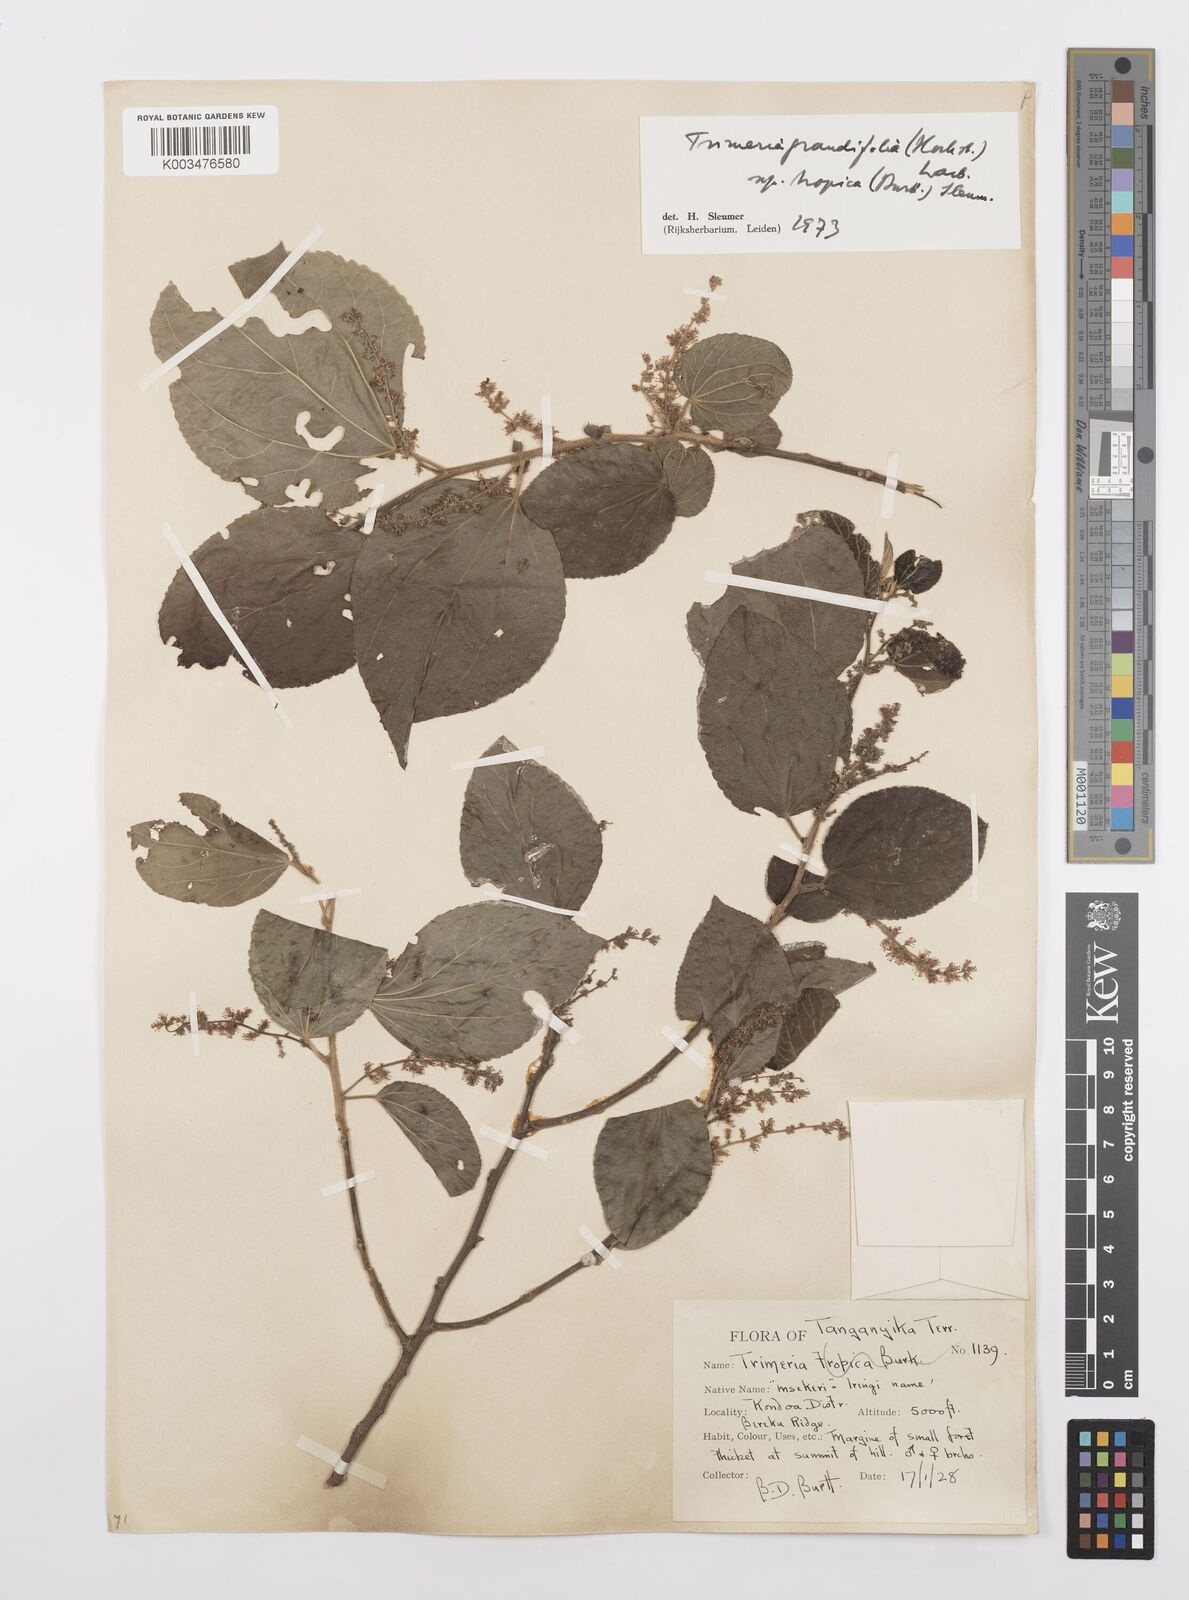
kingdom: Plantae
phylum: Tracheophyta
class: Magnoliopsida
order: Malpighiales
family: Salicaceae
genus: Trimeria
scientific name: Trimeria grandifolia
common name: Wild mulberry
